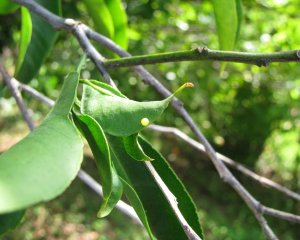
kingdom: Animalia
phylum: Arthropoda
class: Insecta
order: Lepidoptera
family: Papilionidae
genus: Papilio
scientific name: Papilio xuthus
